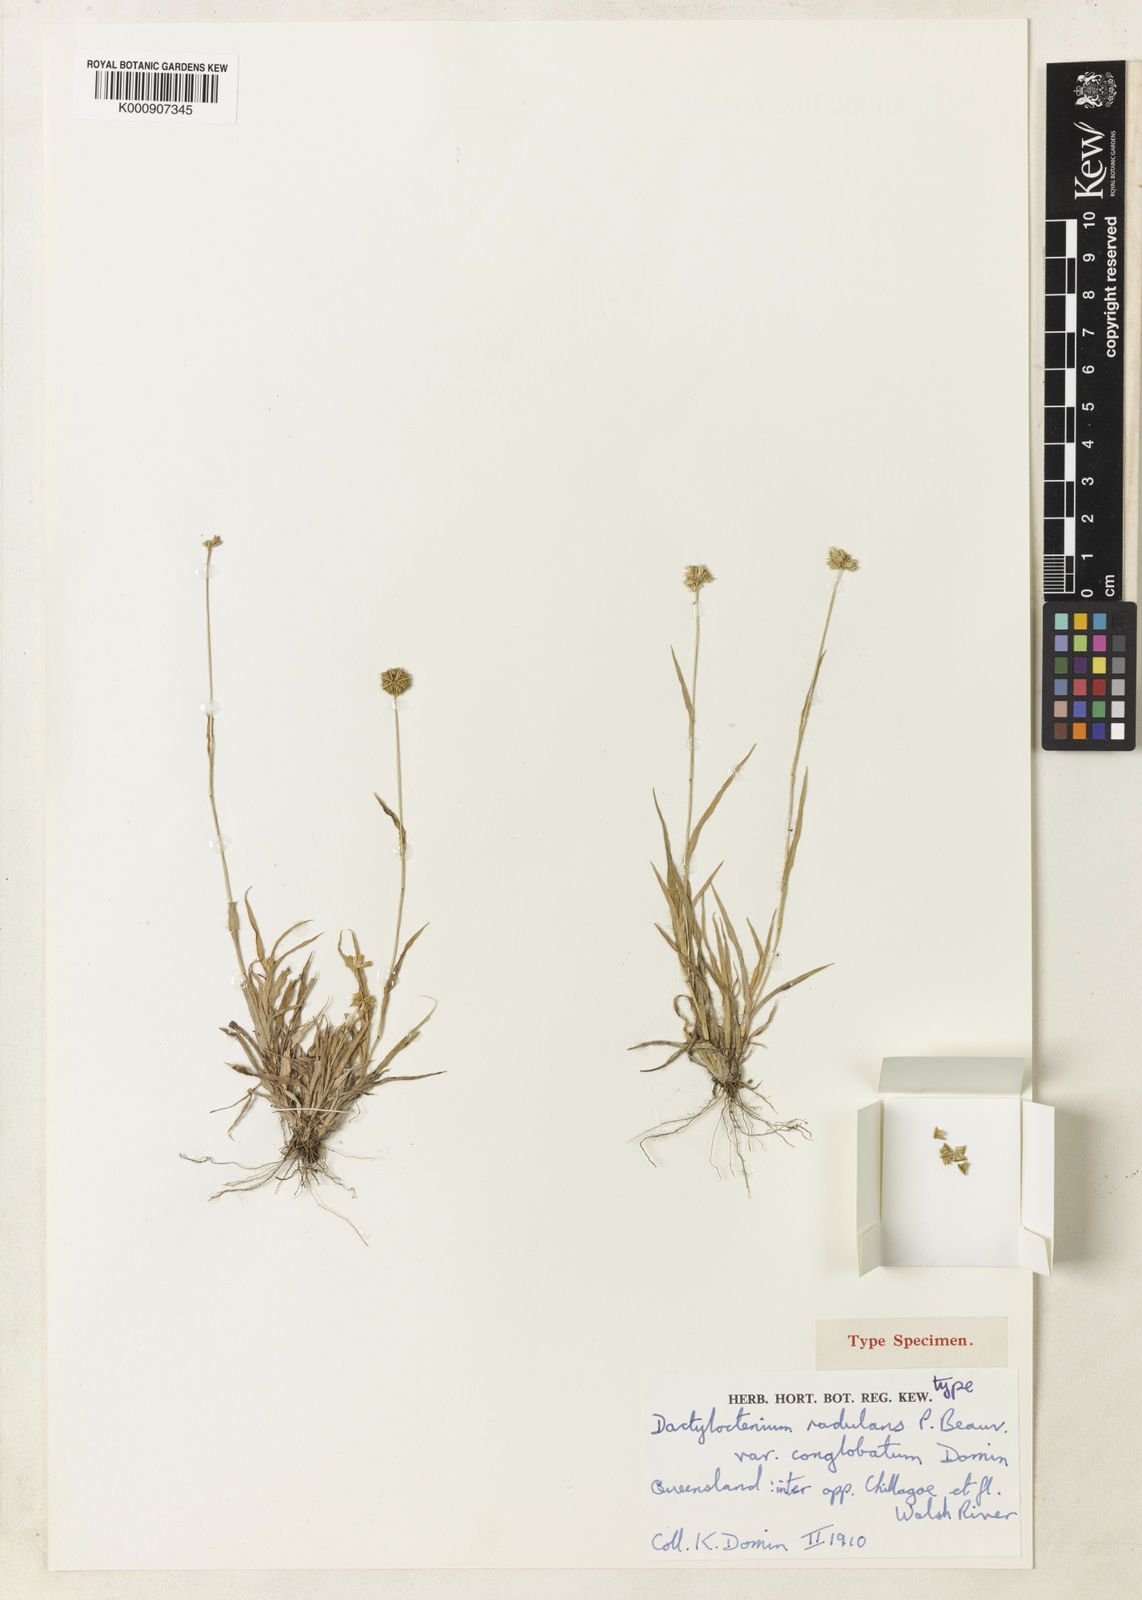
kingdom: Plantae
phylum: Tracheophyta
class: Liliopsida
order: Poales
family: Poaceae
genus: Dactyloctenium
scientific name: Dactyloctenium radulans
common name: Button-grass
